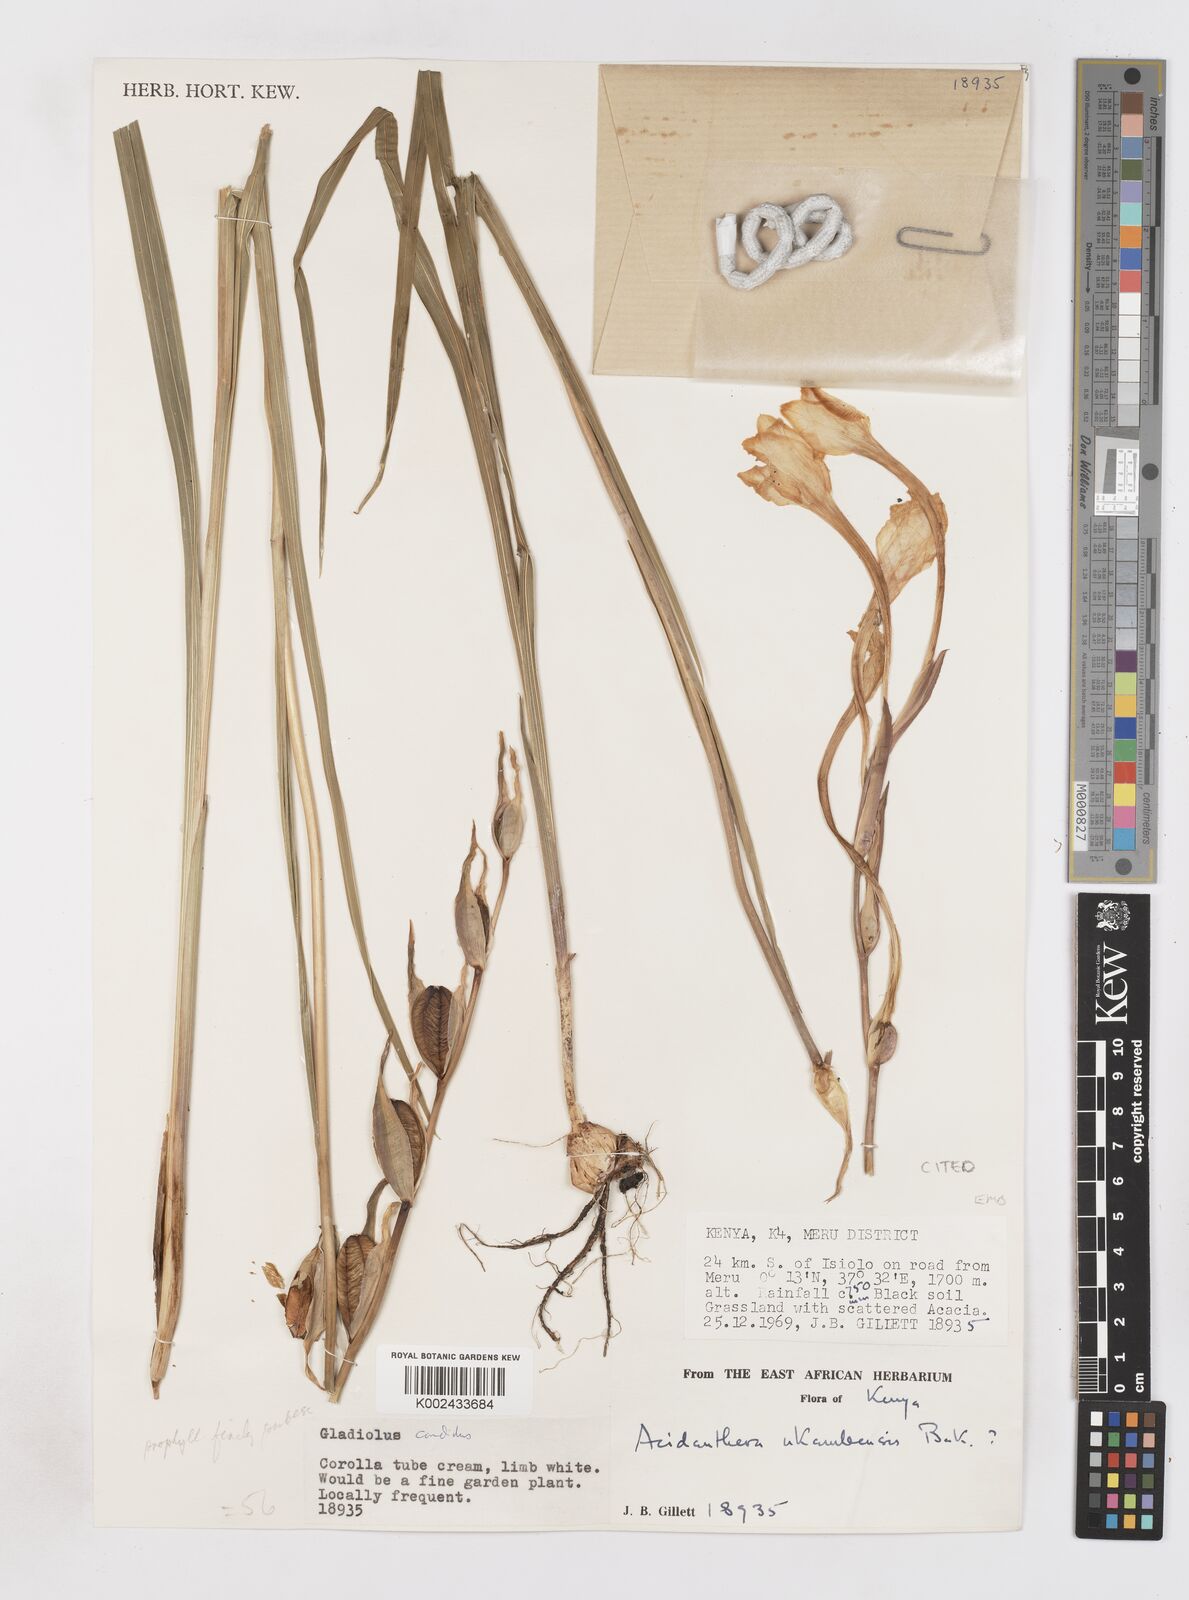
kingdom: Plantae
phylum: Tracheophyta
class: Liliopsida
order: Asparagales
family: Iridaceae
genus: Gladiolus
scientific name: Gladiolus candidus
